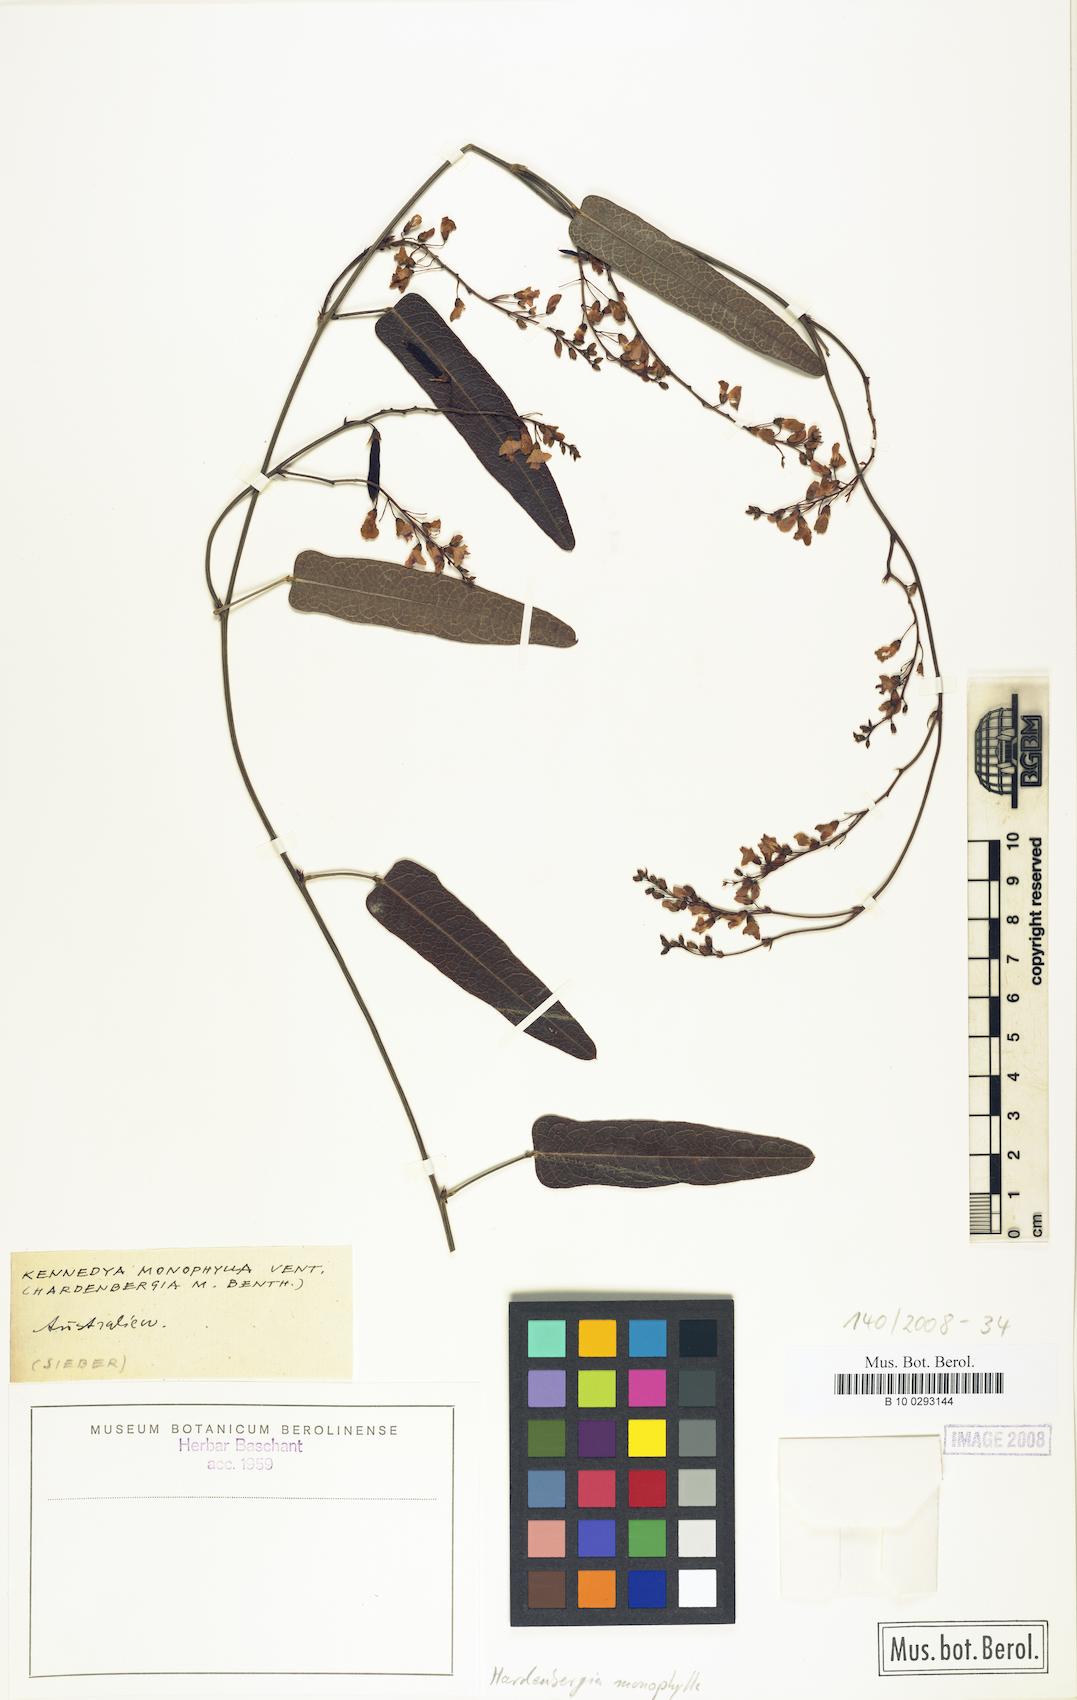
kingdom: Plantae
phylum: Tracheophyta
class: Magnoliopsida
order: Fabales
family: Fabaceae
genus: Hardenbergia
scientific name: Hardenbergia violacea
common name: Coral-pea
